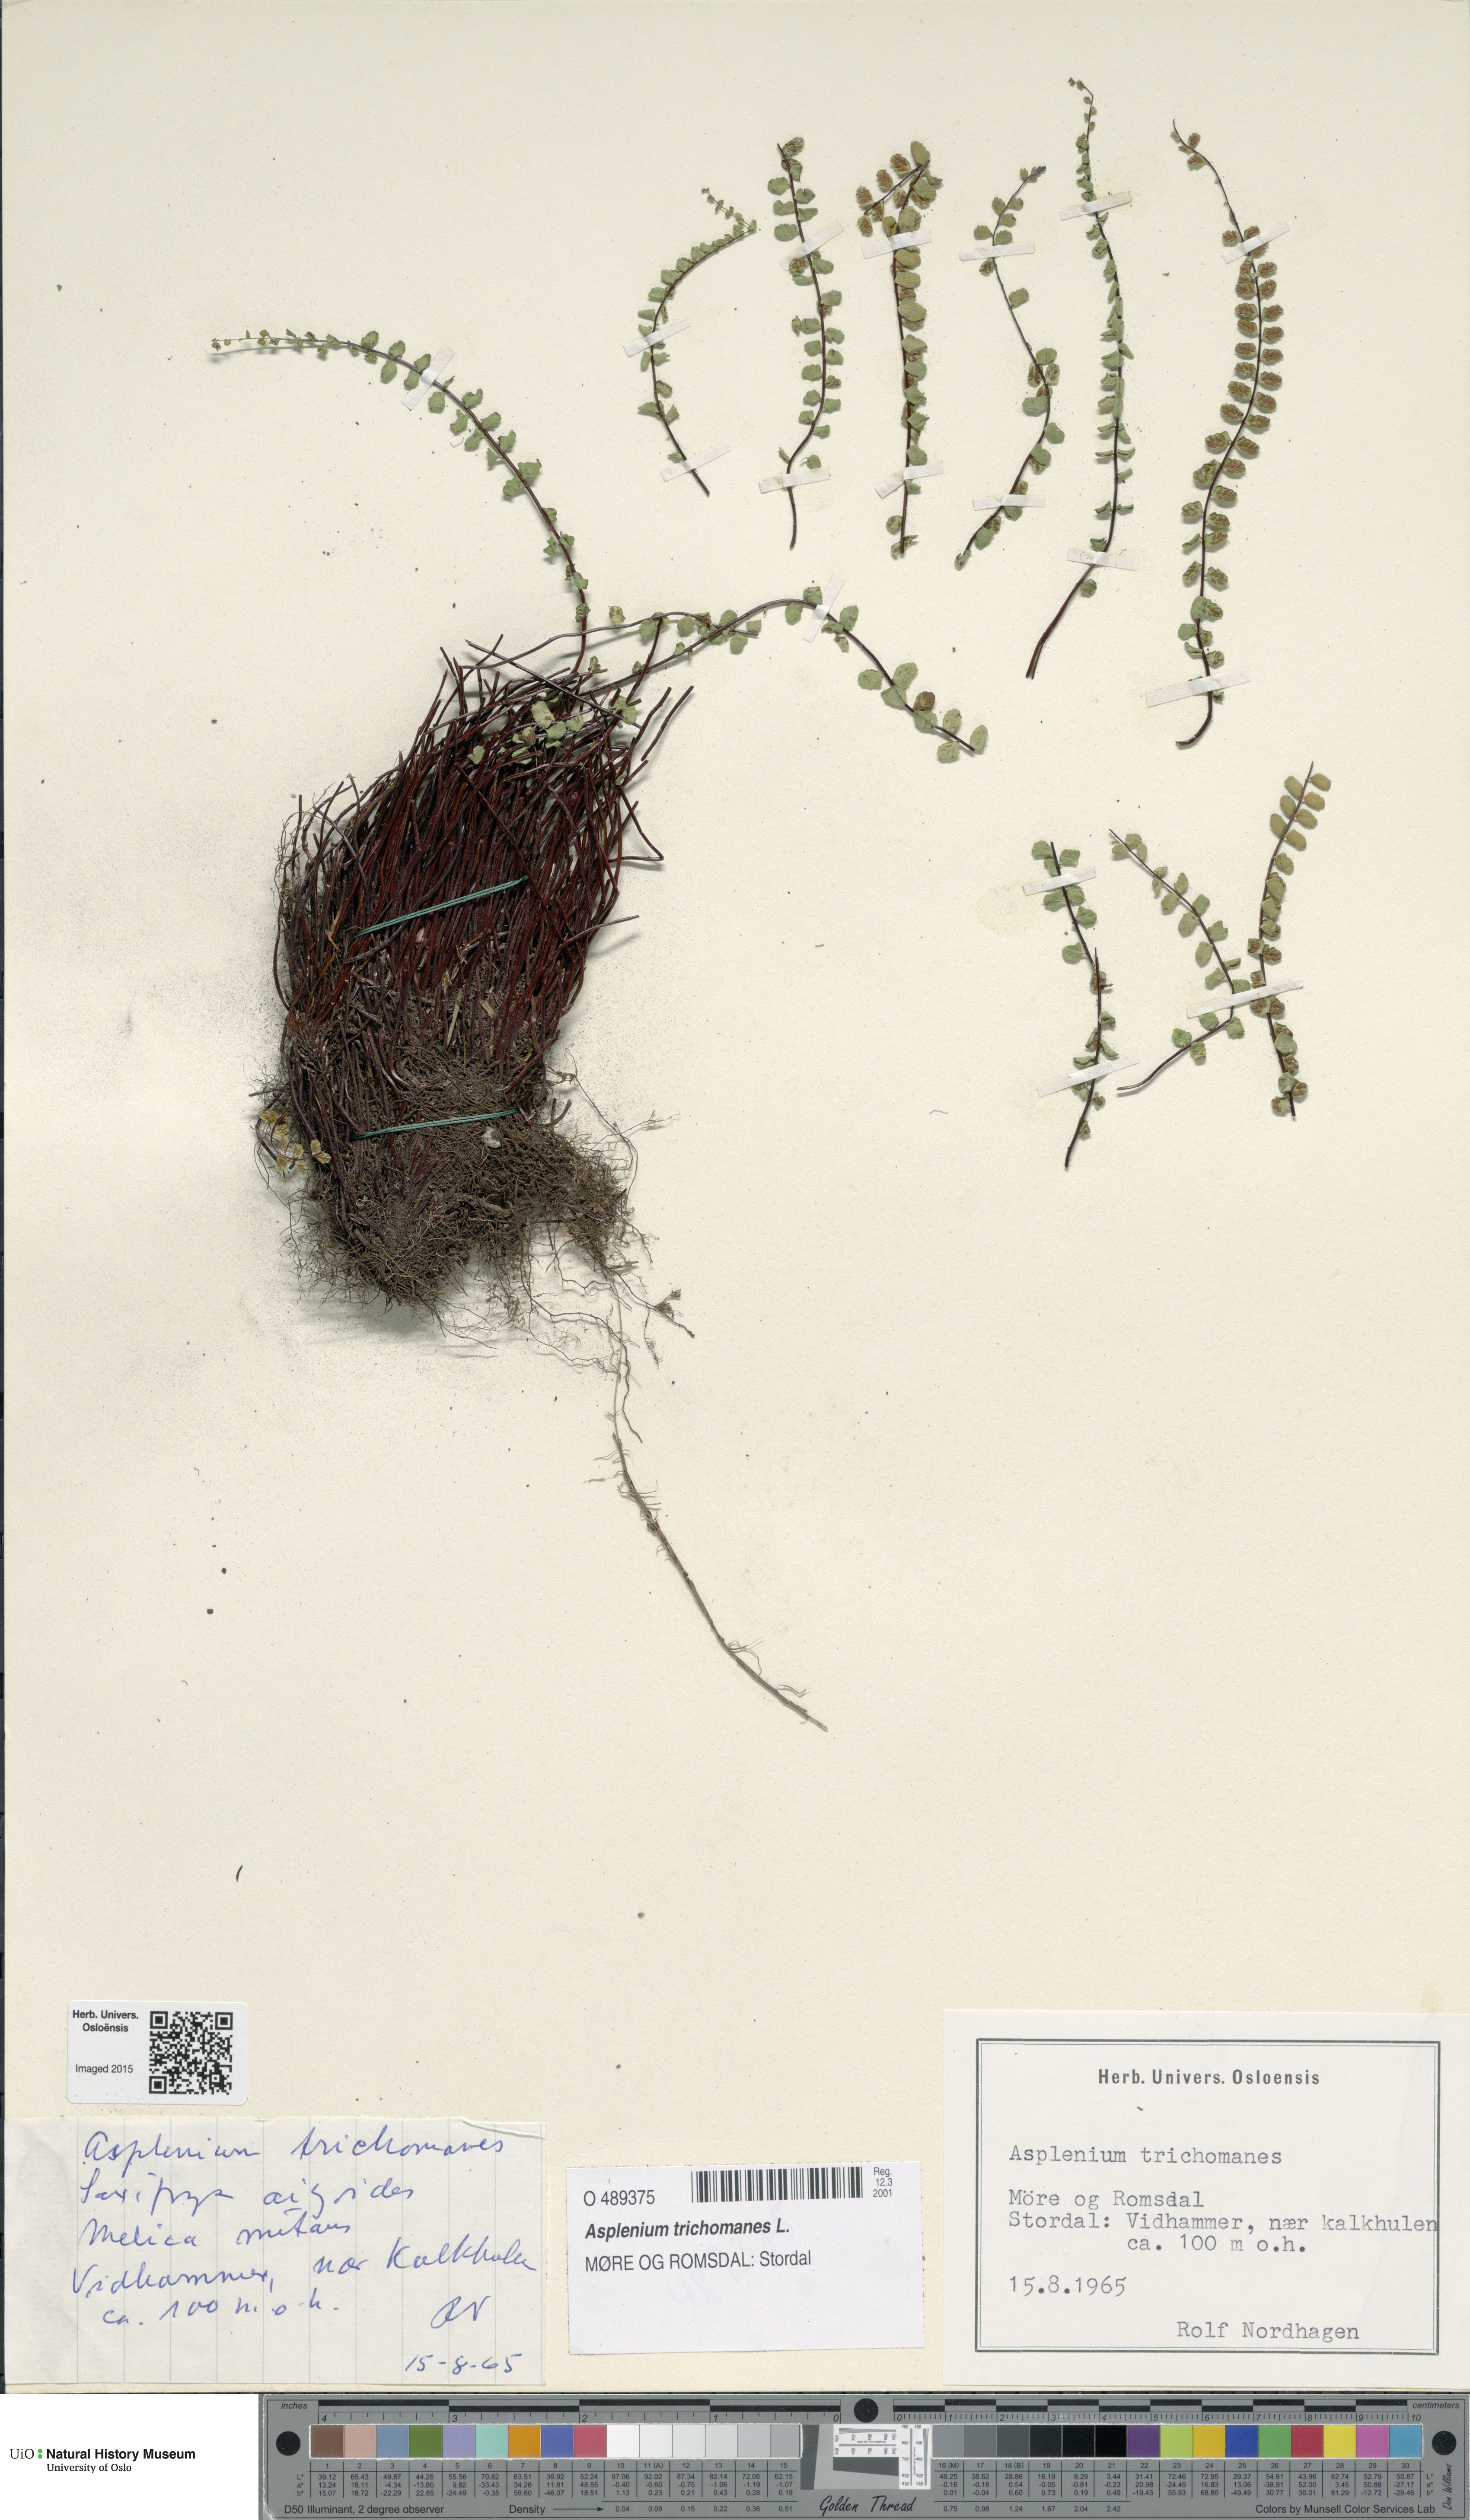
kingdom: Plantae
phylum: Tracheophyta
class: Polypodiopsida
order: Polypodiales
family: Aspleniaceae
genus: Asplenium
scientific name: Asplenium trichomanes
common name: Maidenhair spleenwort
